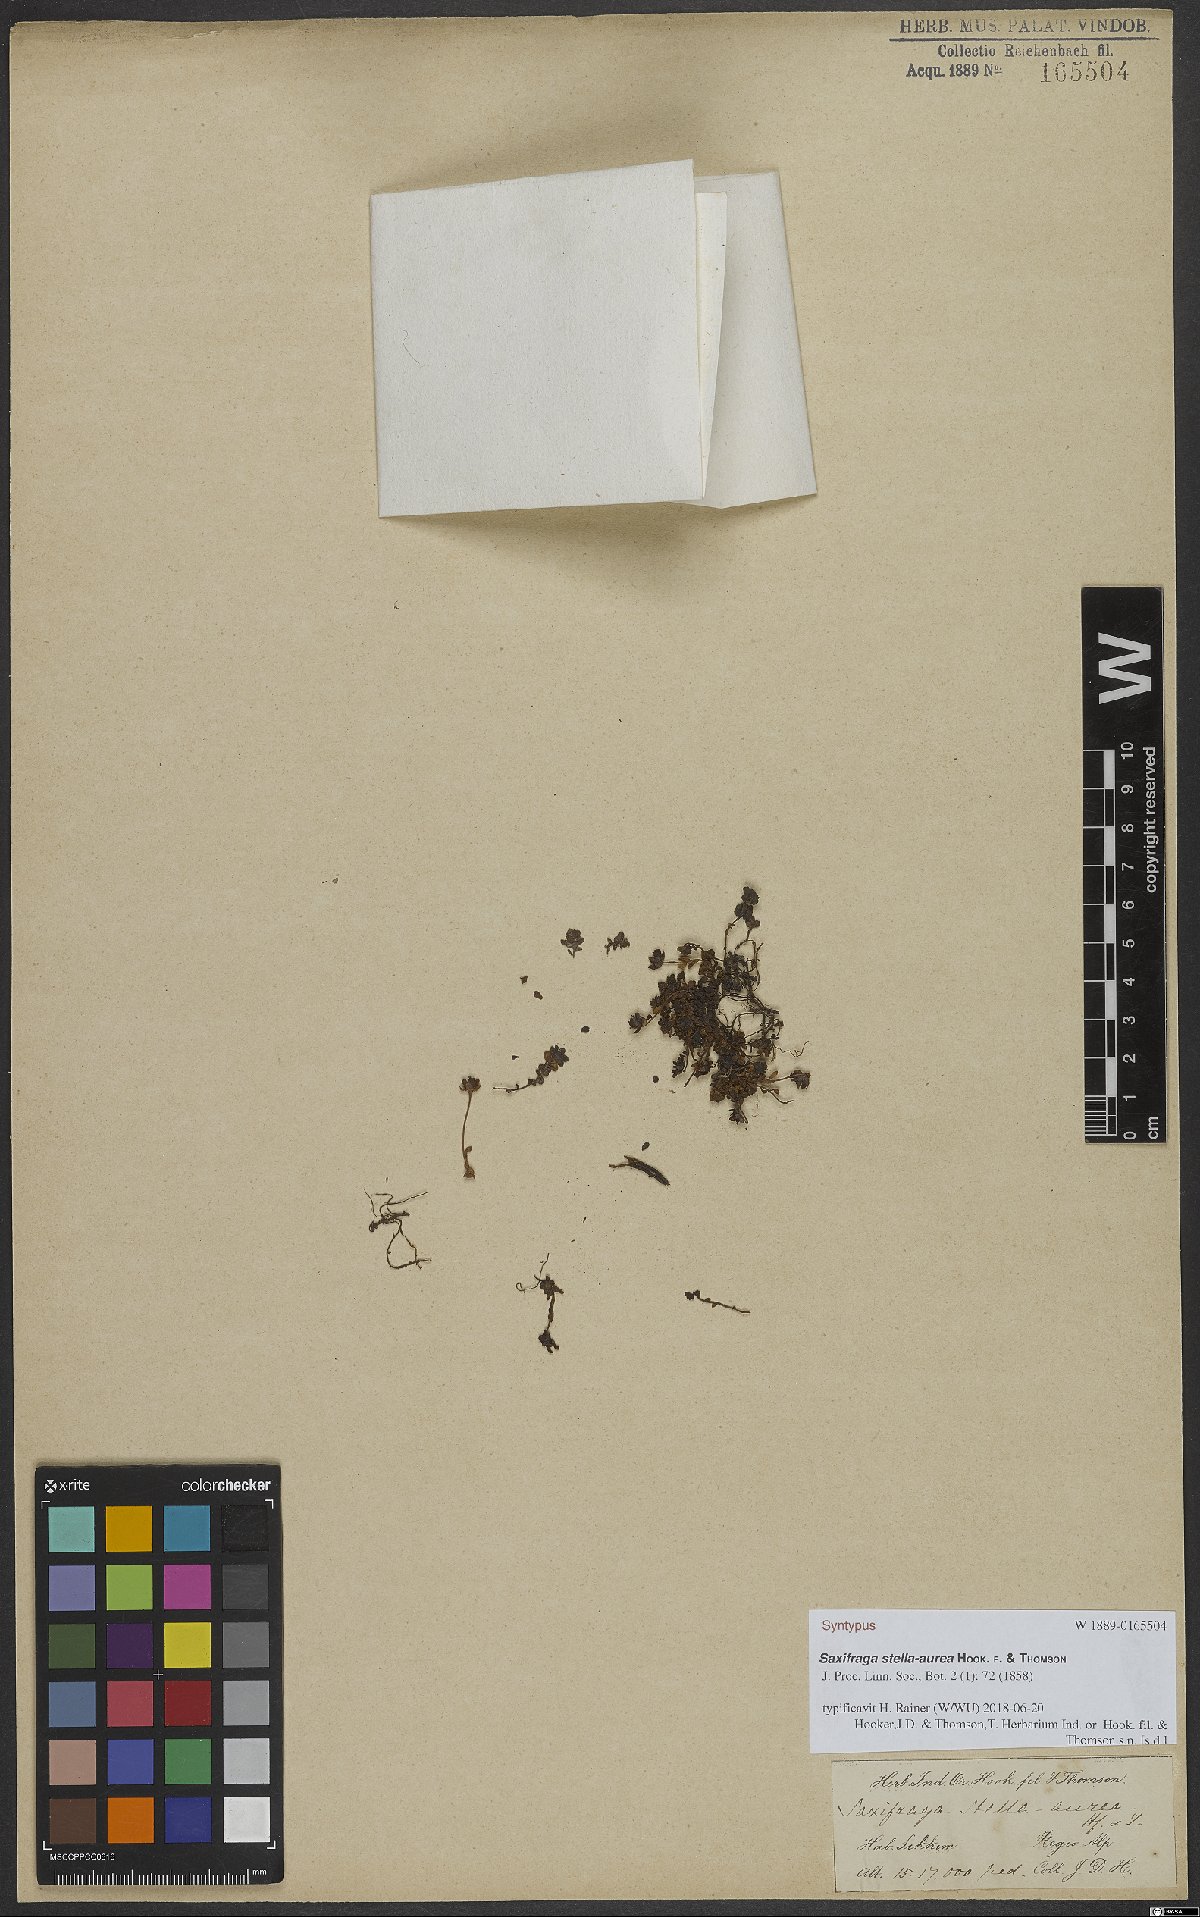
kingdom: Plantae
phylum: Tracheophyta
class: Magnoliopsida
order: Saxifragales
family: Saxifragaceae
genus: Saxifraga
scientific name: Saxifraga stella-aurea
